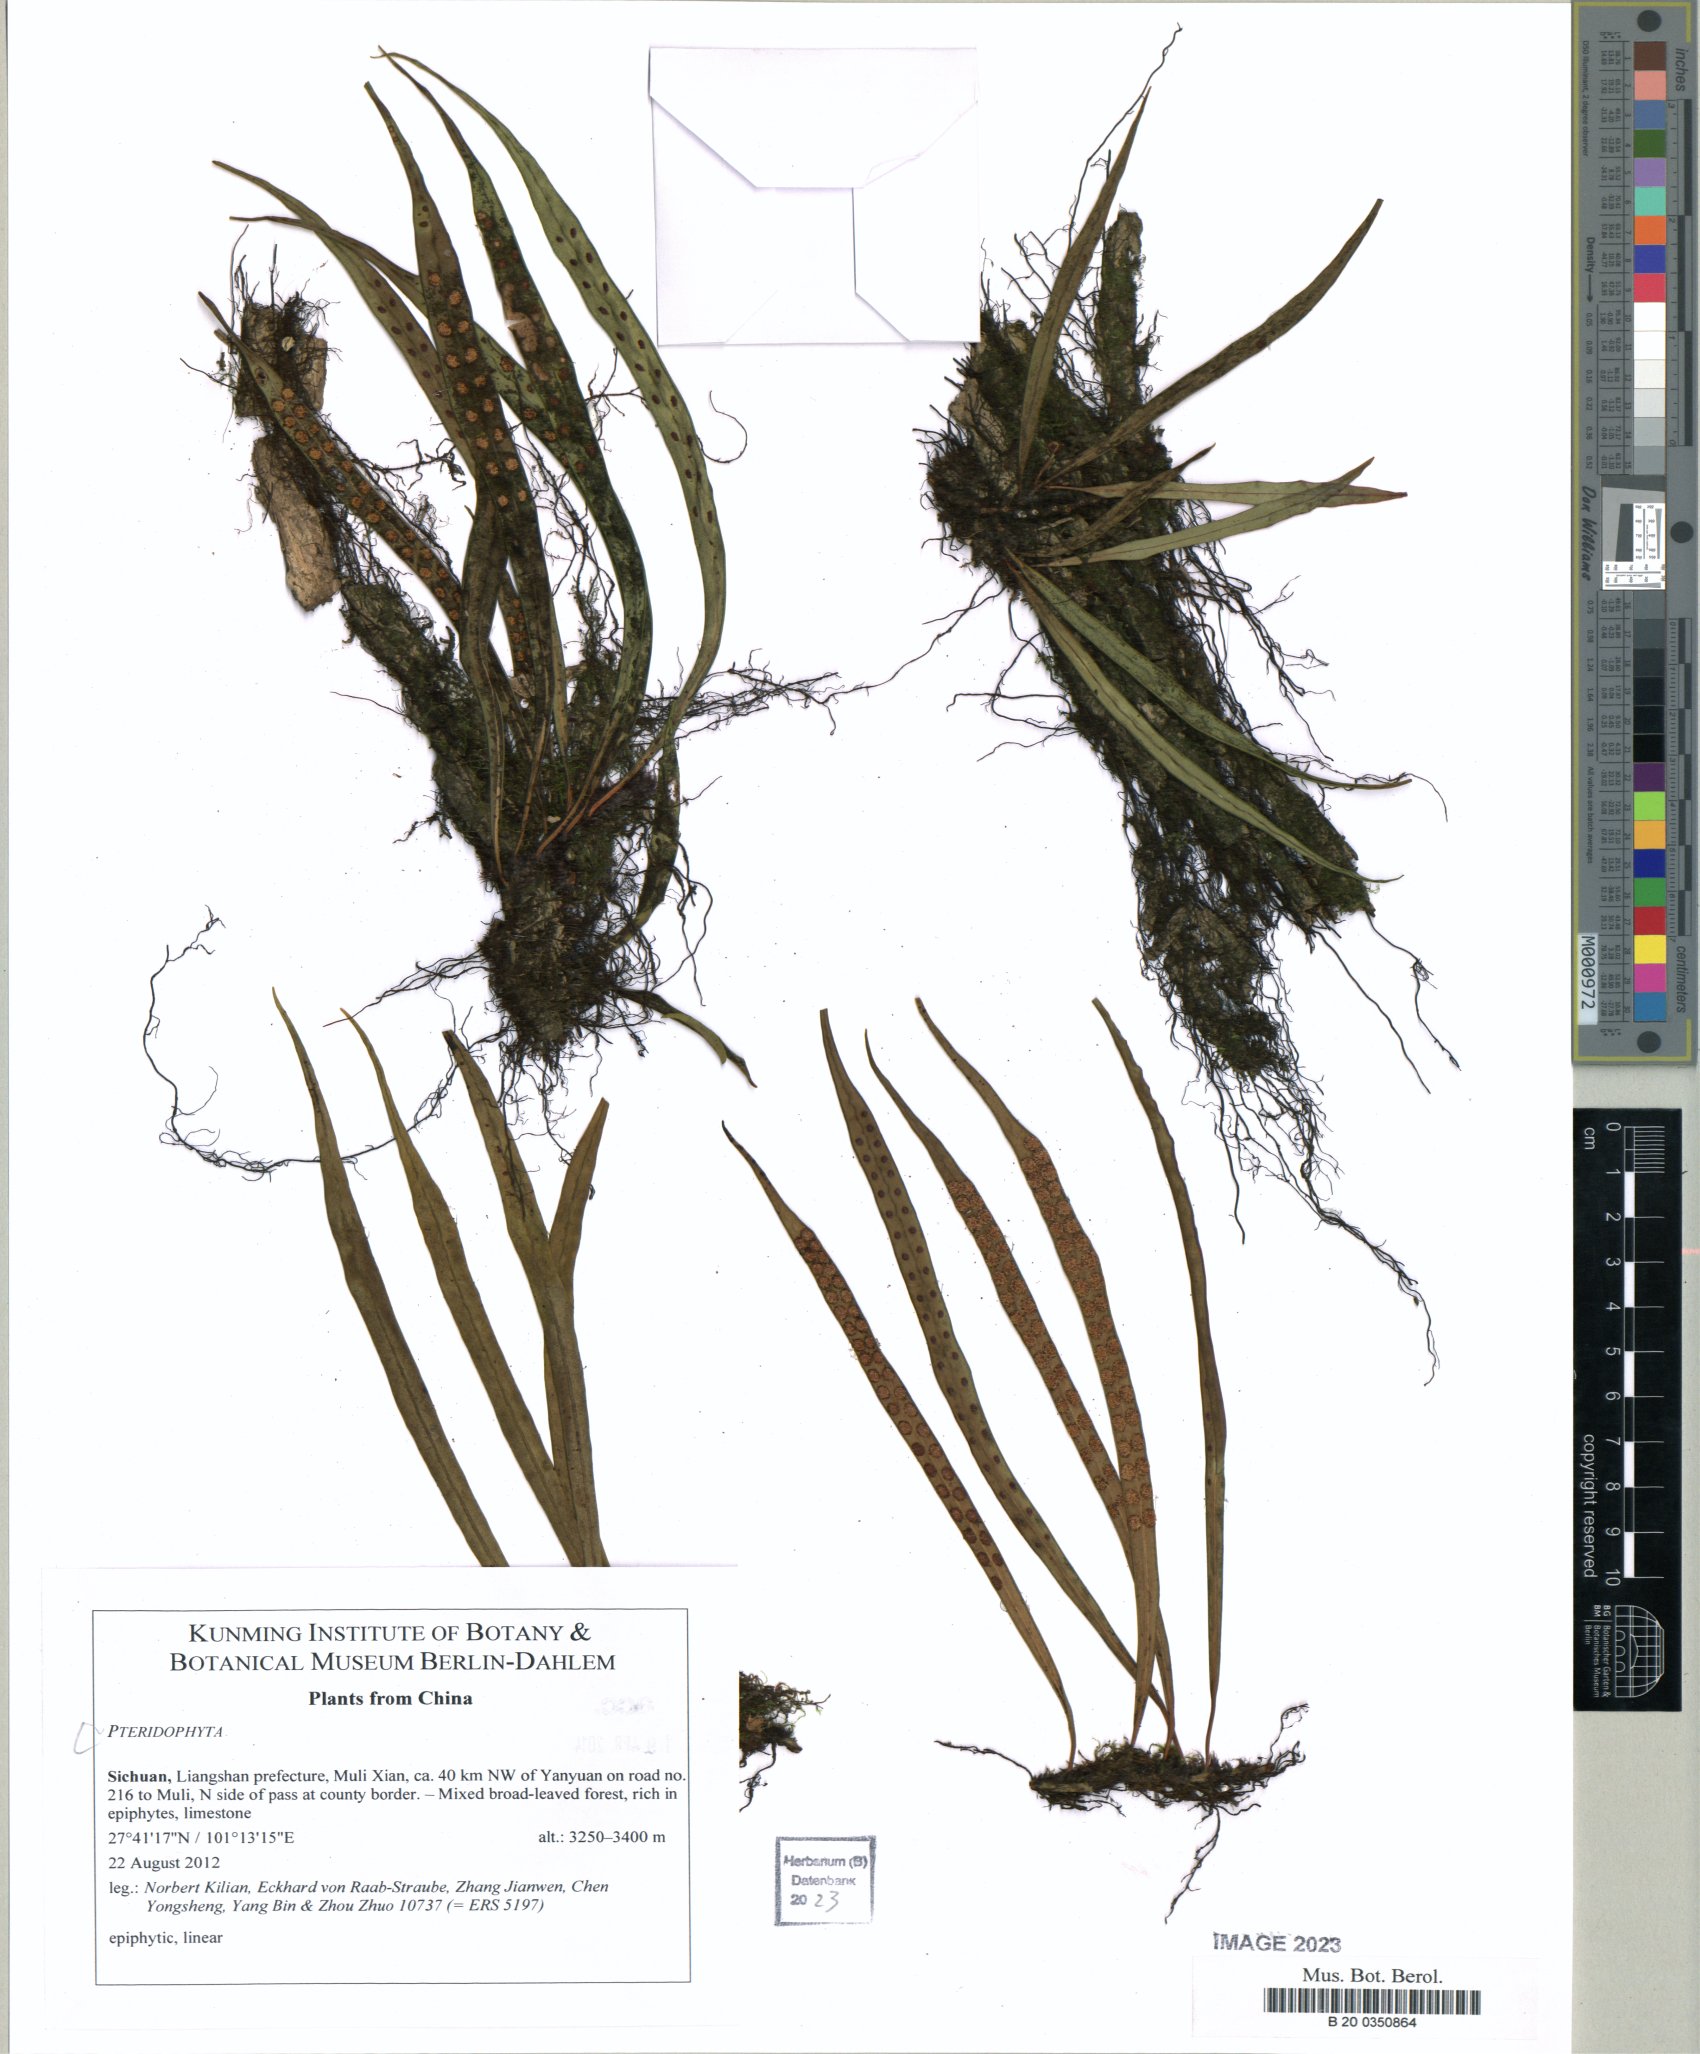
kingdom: Plantae
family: Pteridophyta
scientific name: Pteridophyta
